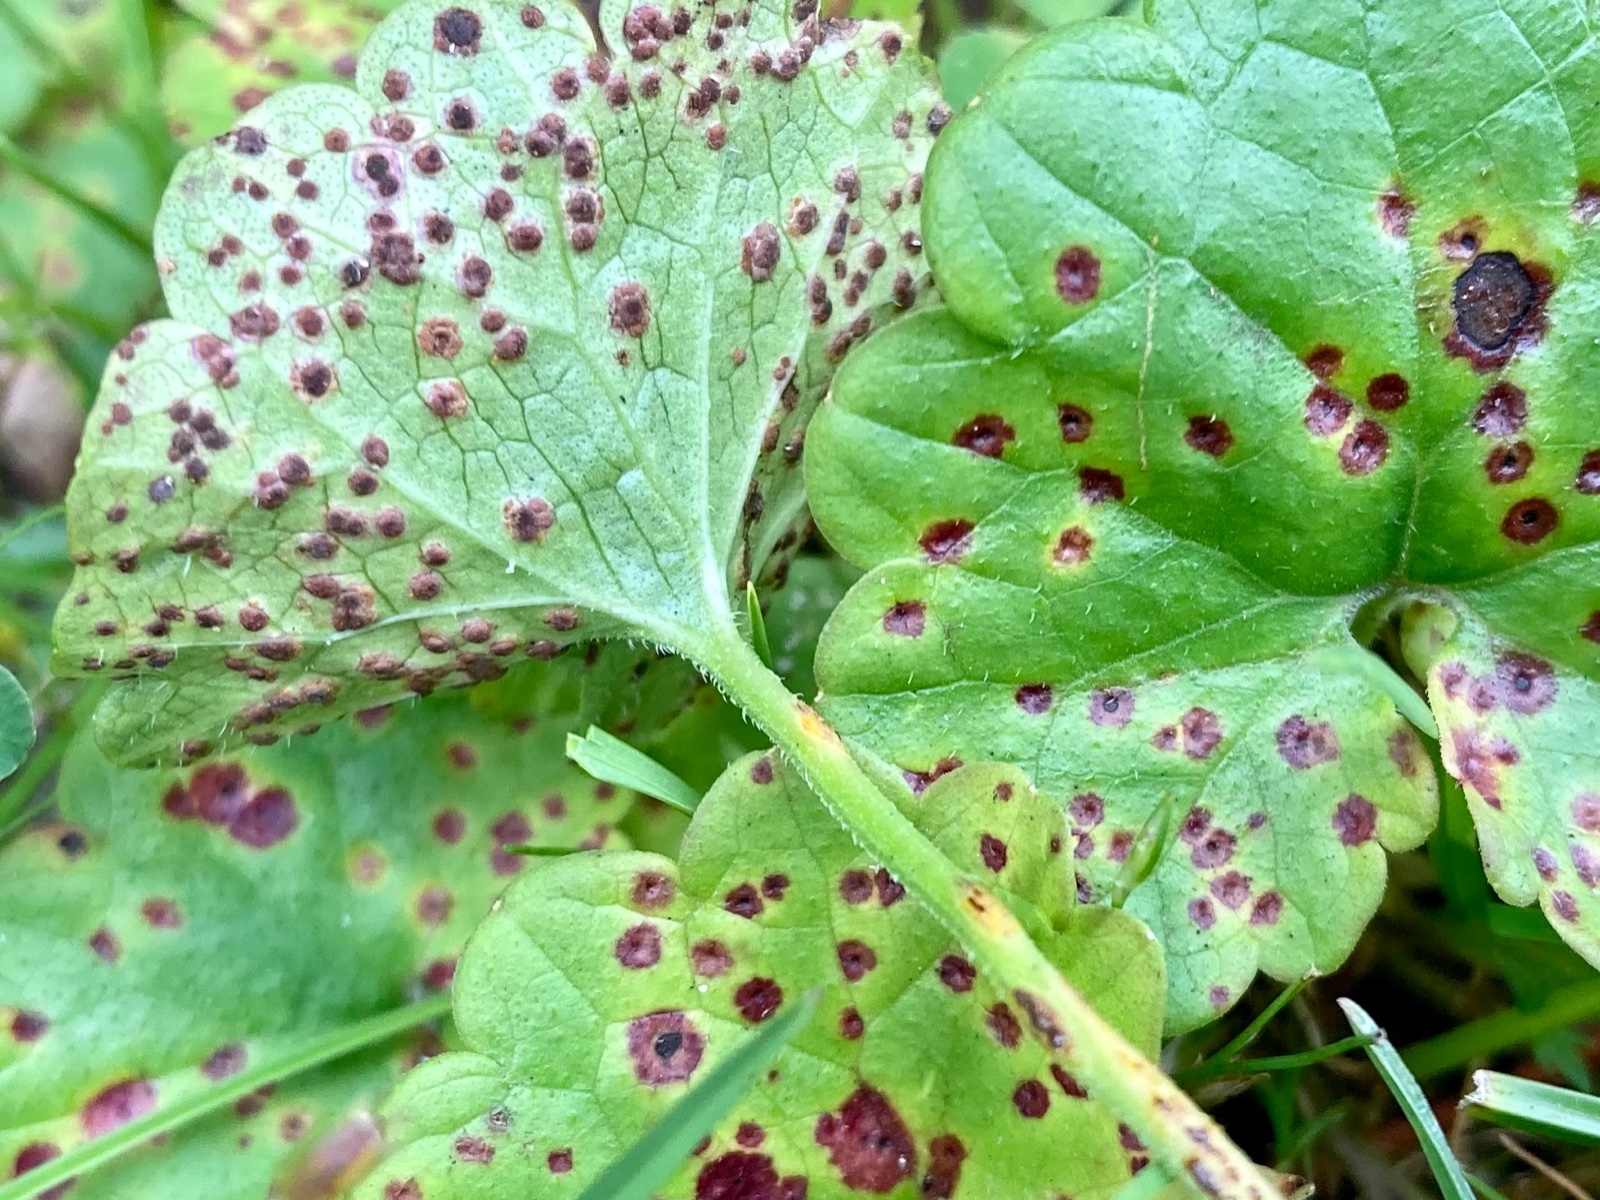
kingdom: Fungi
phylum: Basidiomycota
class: Pucciniomycetes
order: Pucciniales
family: Pucciniaceae
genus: Puccinia
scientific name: Puccinia glechomatis
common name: Ground ivy rust
